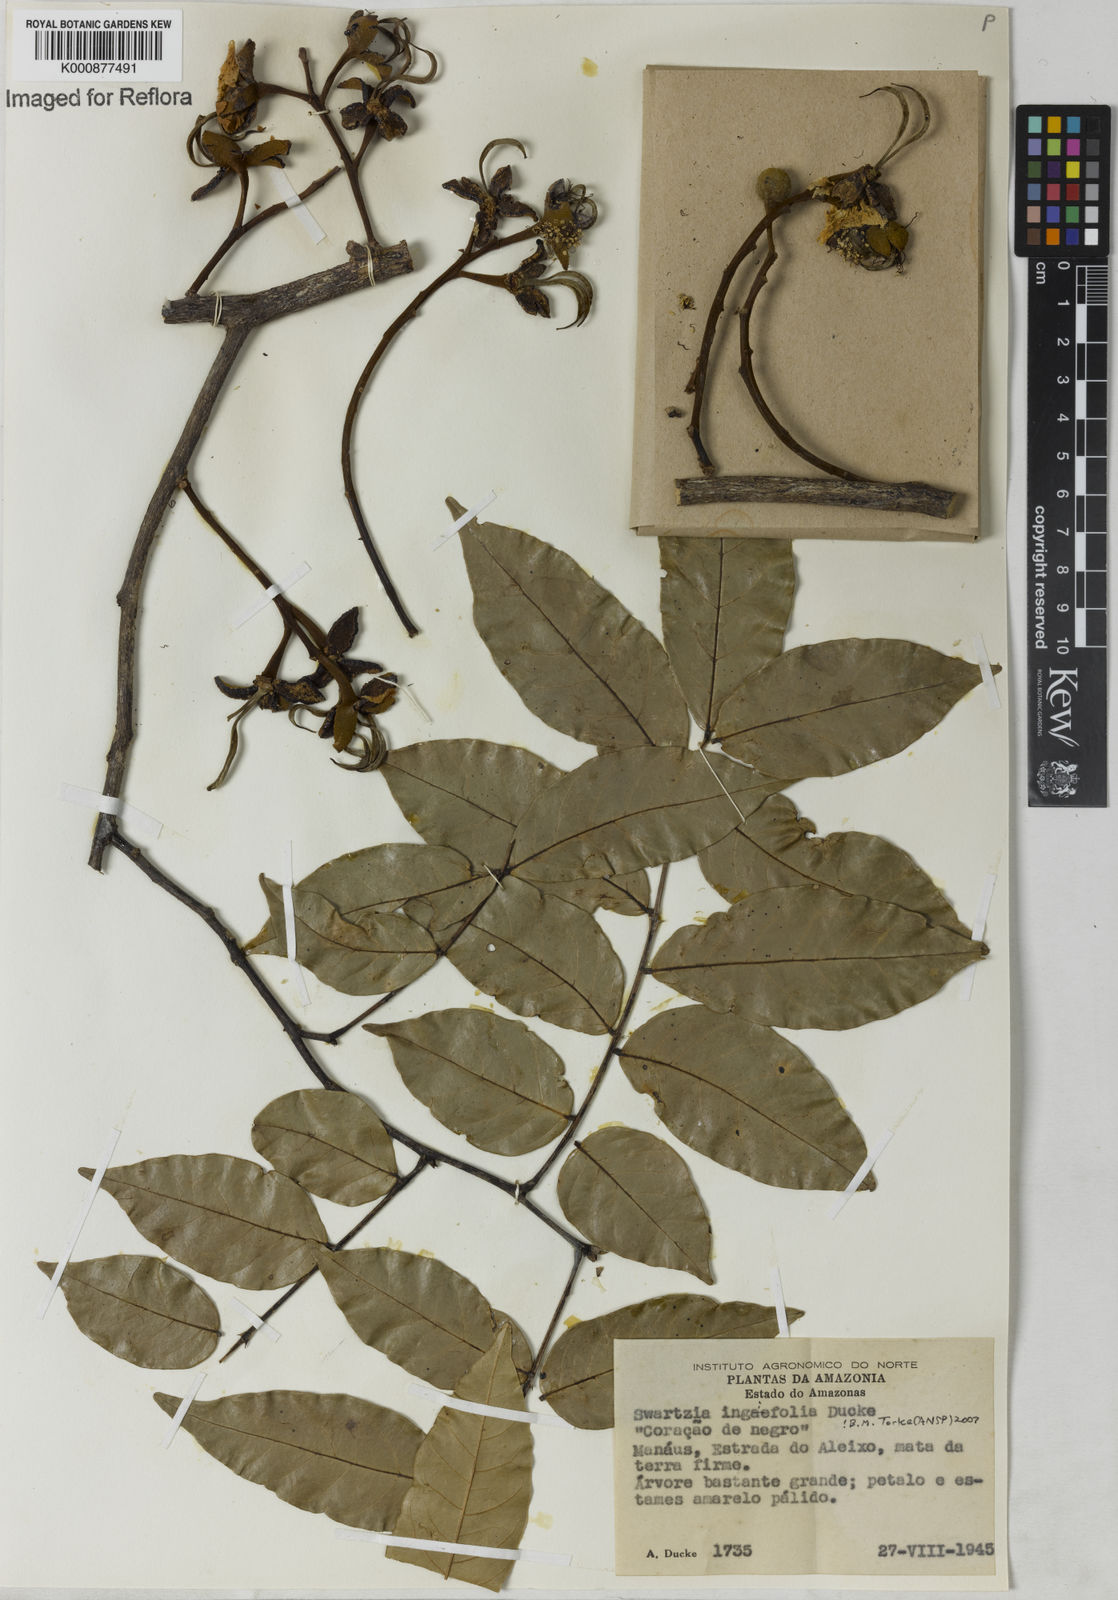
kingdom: Plantae
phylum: Tracheophyta
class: Magnoliopsida
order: Fabales
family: Fabaceae
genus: Swartzia
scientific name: Swartzia ingifolia
